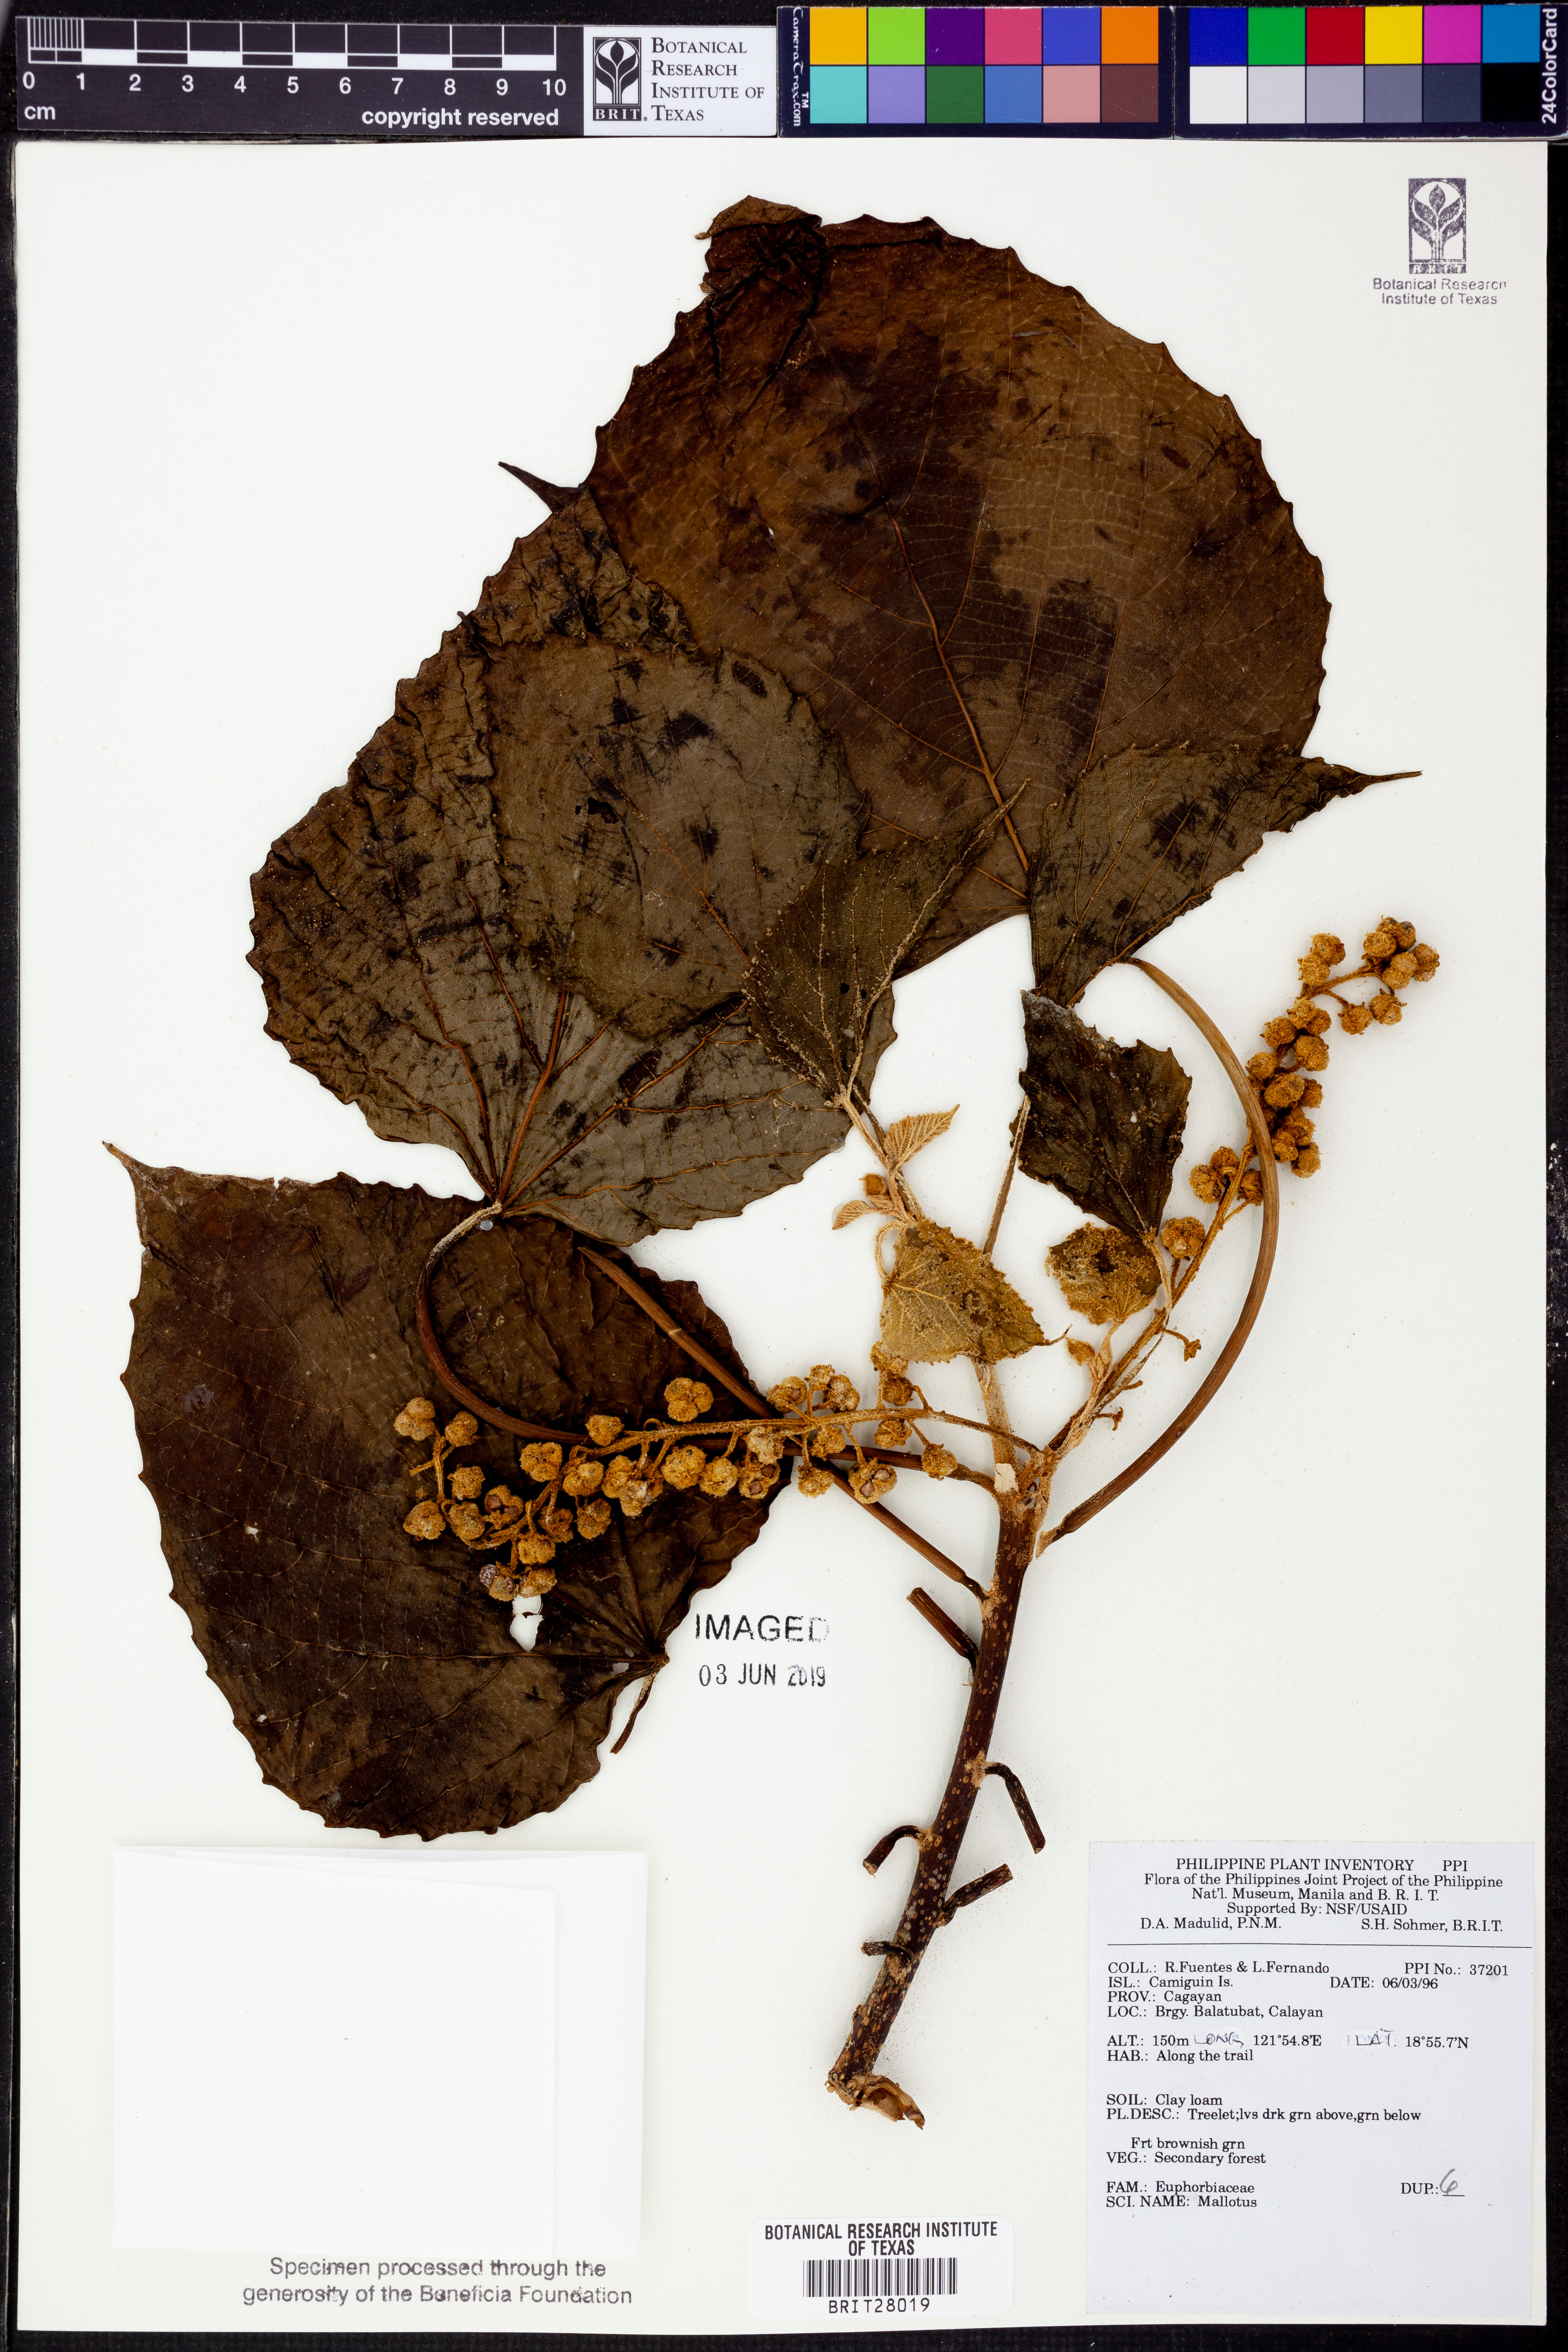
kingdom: Plantae
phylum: Tracheophyta
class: Magnoliopsida
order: Malpighiales
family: Euphorbiaceae
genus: Mallotus
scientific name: Mallotus
